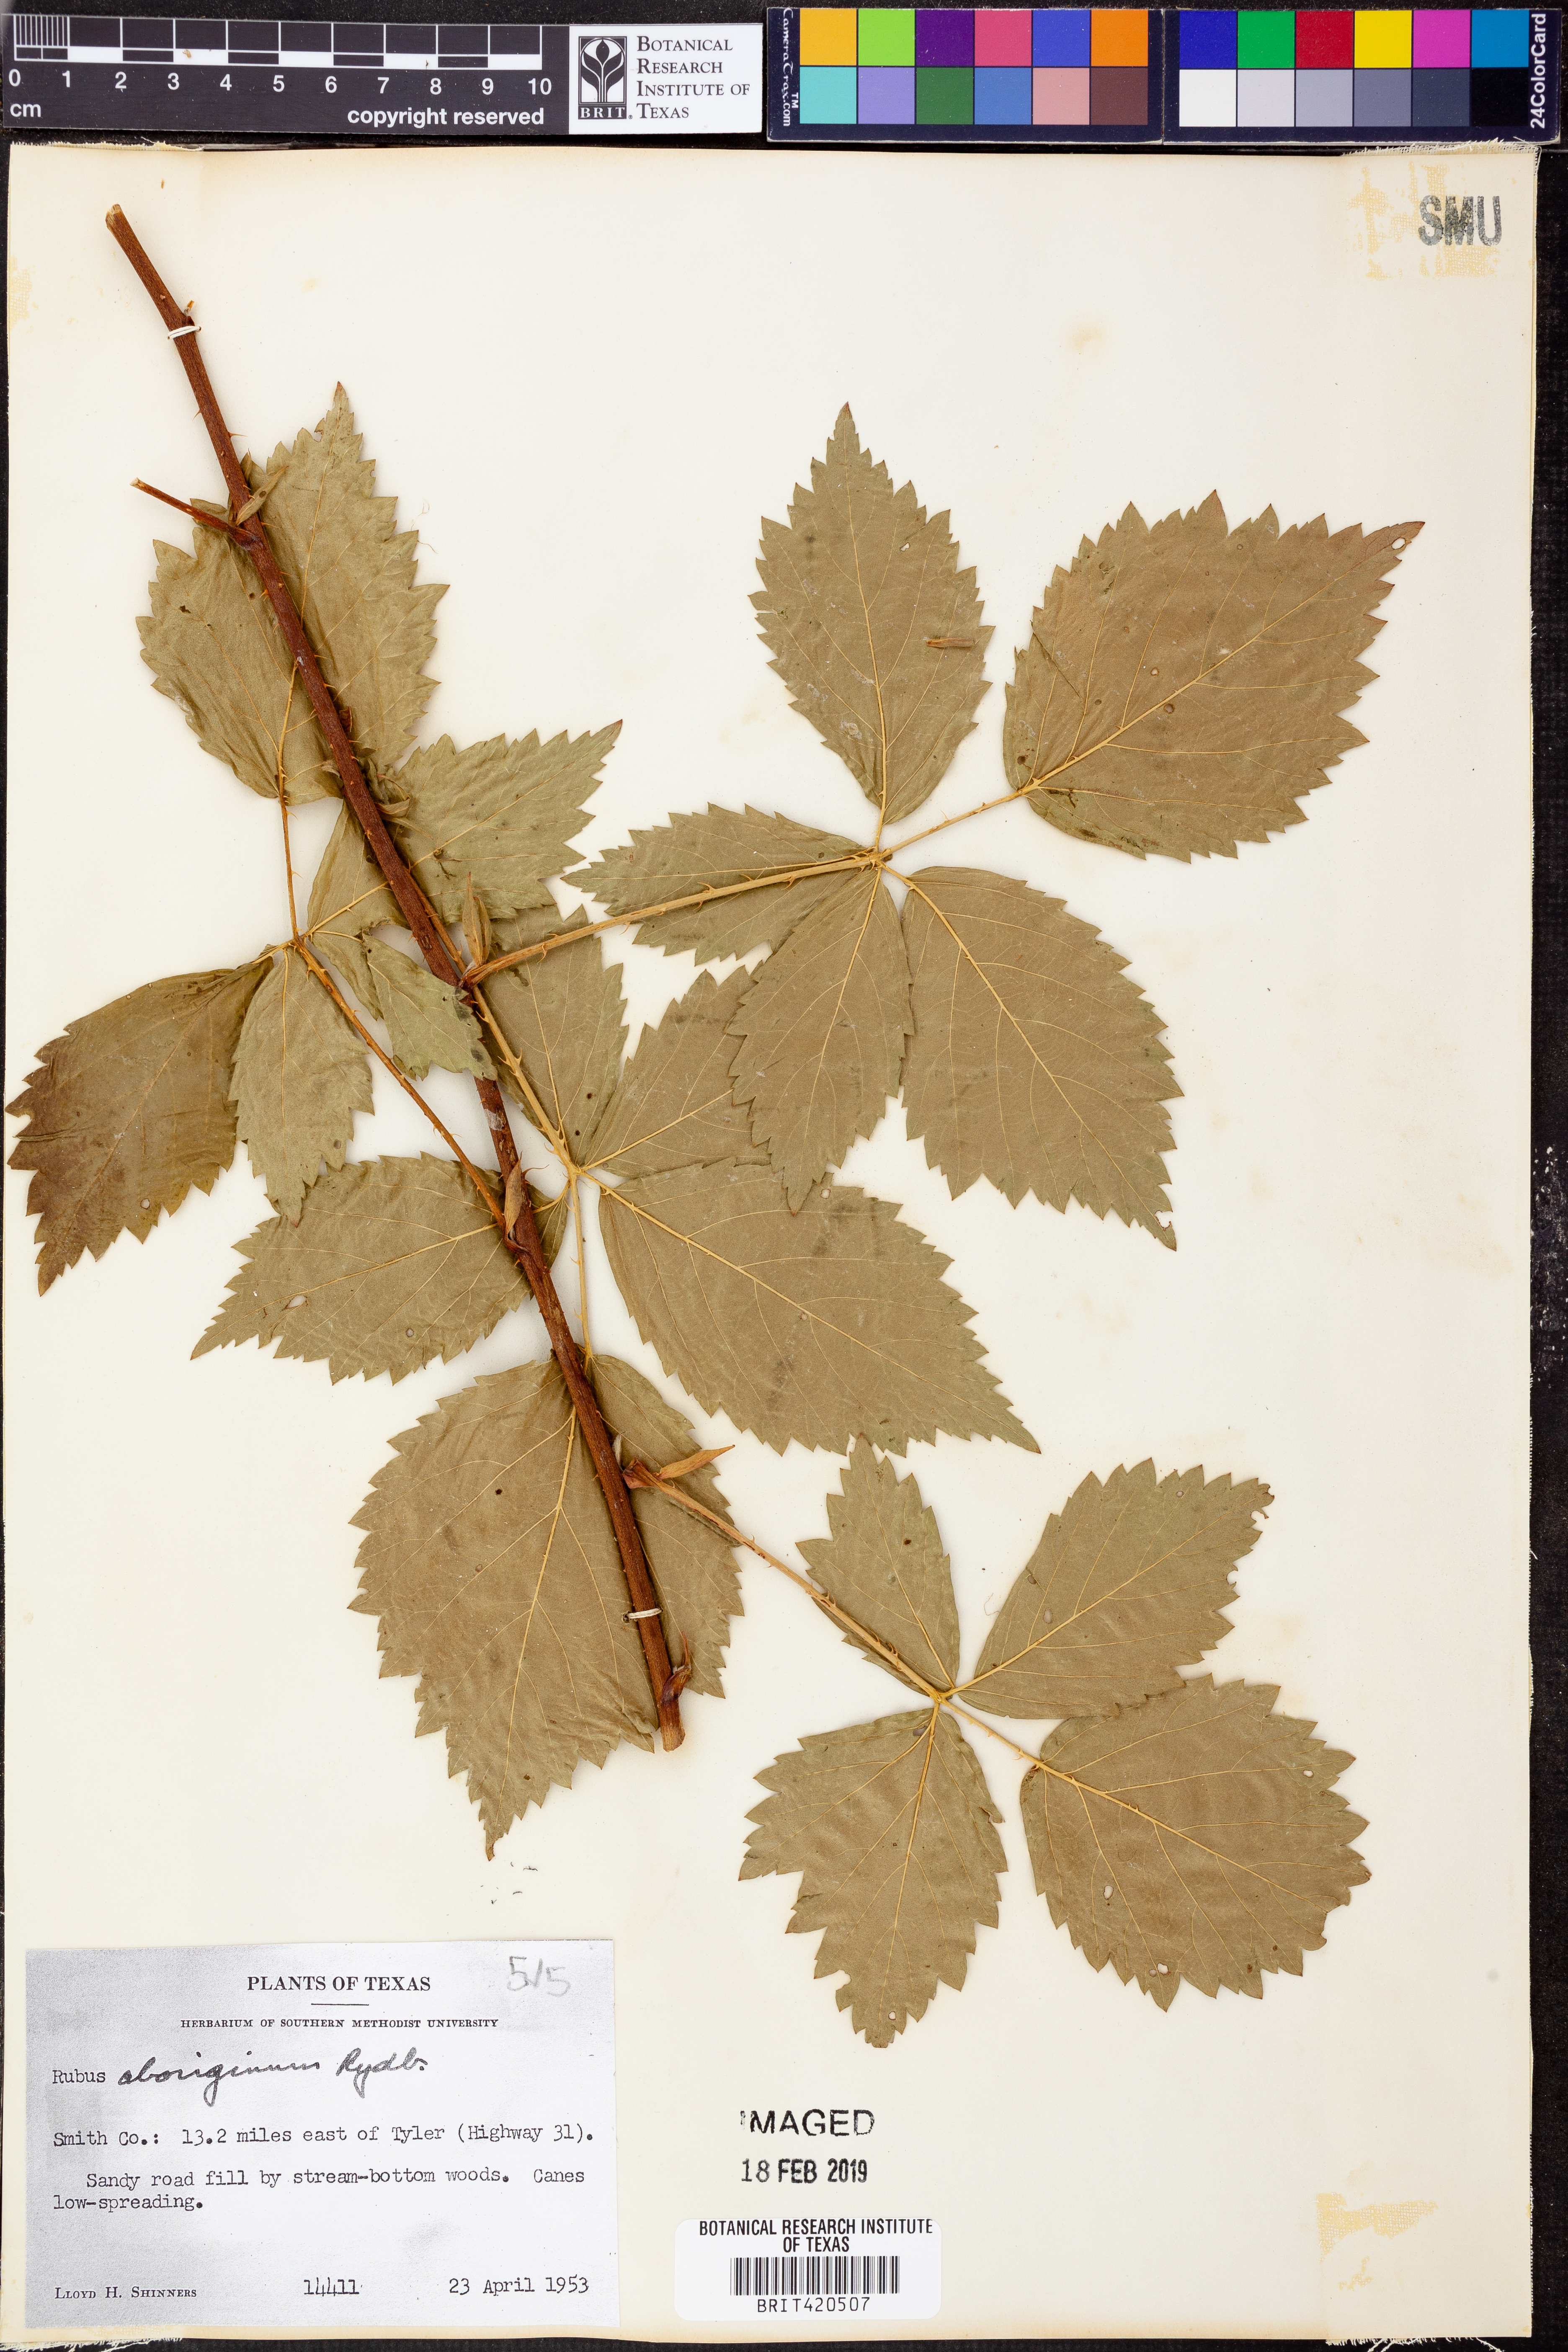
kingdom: Plantae
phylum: Tracheophyta
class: Magnoliopsida
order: Rosales
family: Rosaceae
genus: Rubus
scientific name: Rubus aboriginum
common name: Mayes dewberry
